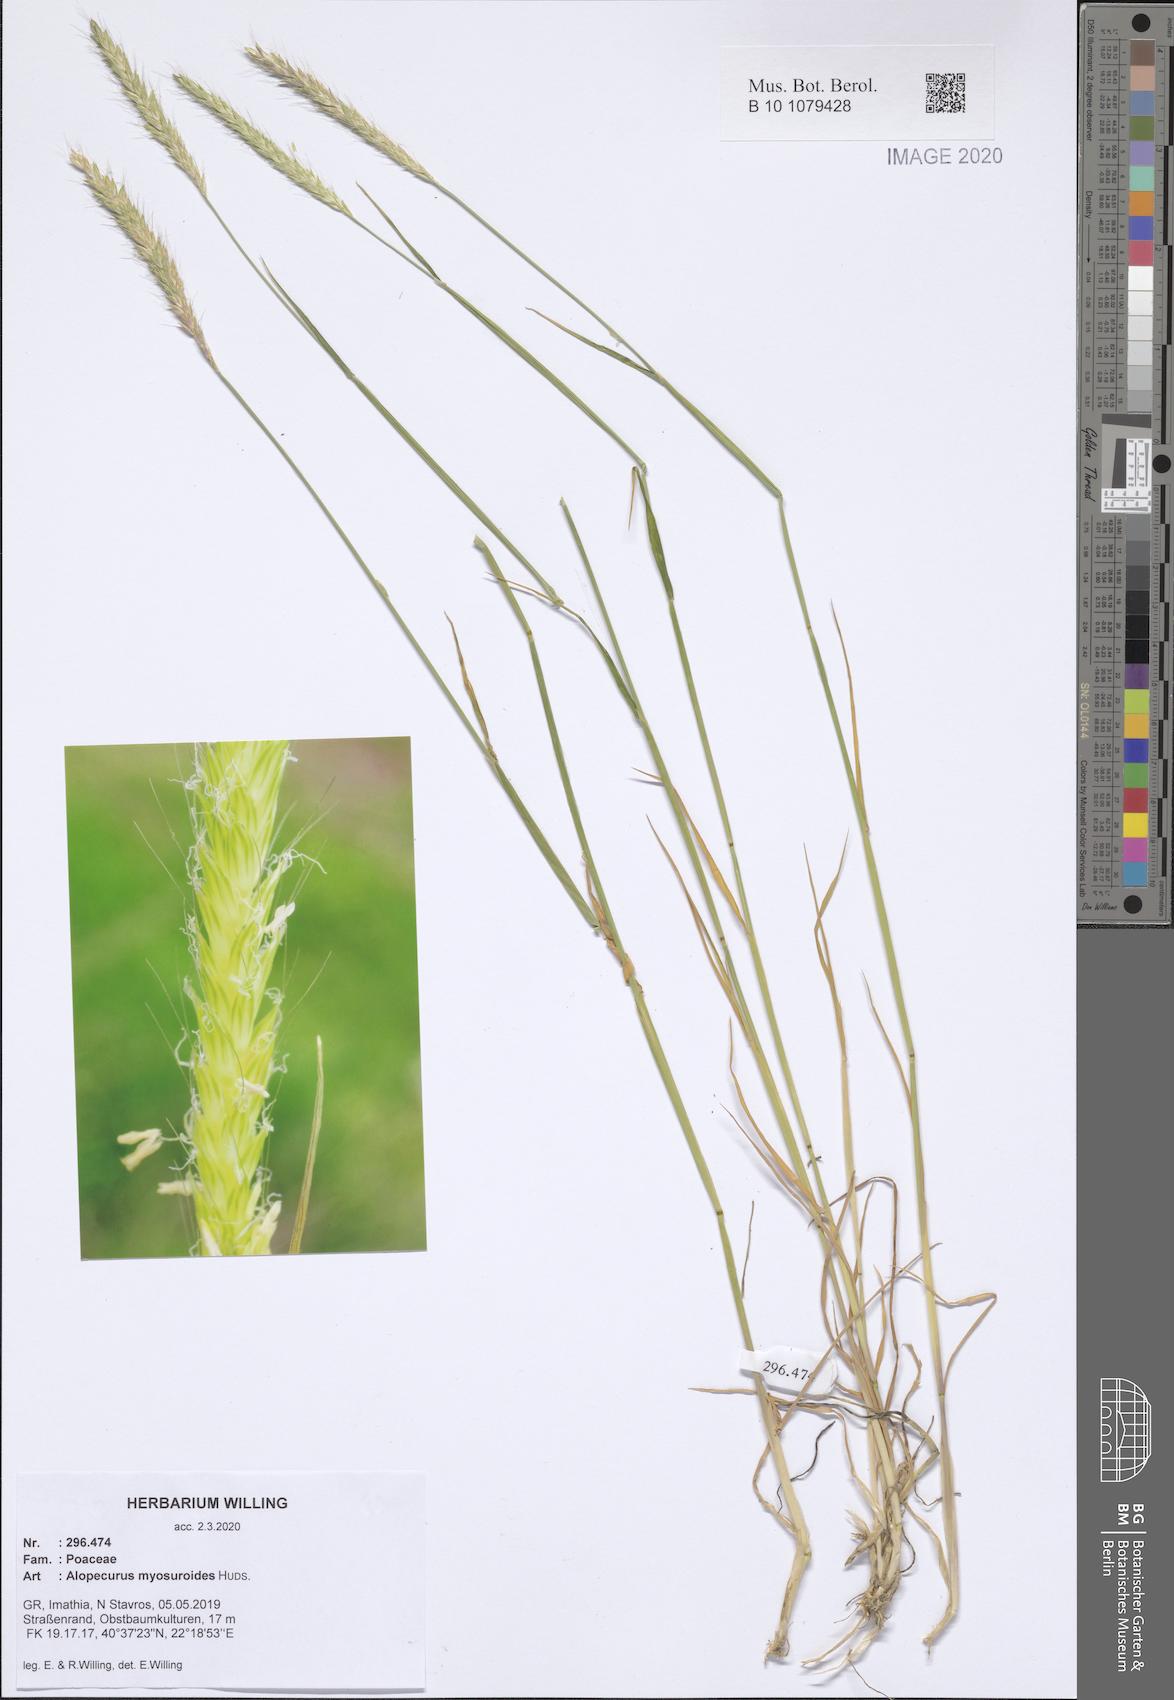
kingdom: Plantae
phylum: Tracheophyta
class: Liliopsida
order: Poales
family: Poaceae
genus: Alopecurus
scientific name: Alopecurus myosuroides
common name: Black-grass
